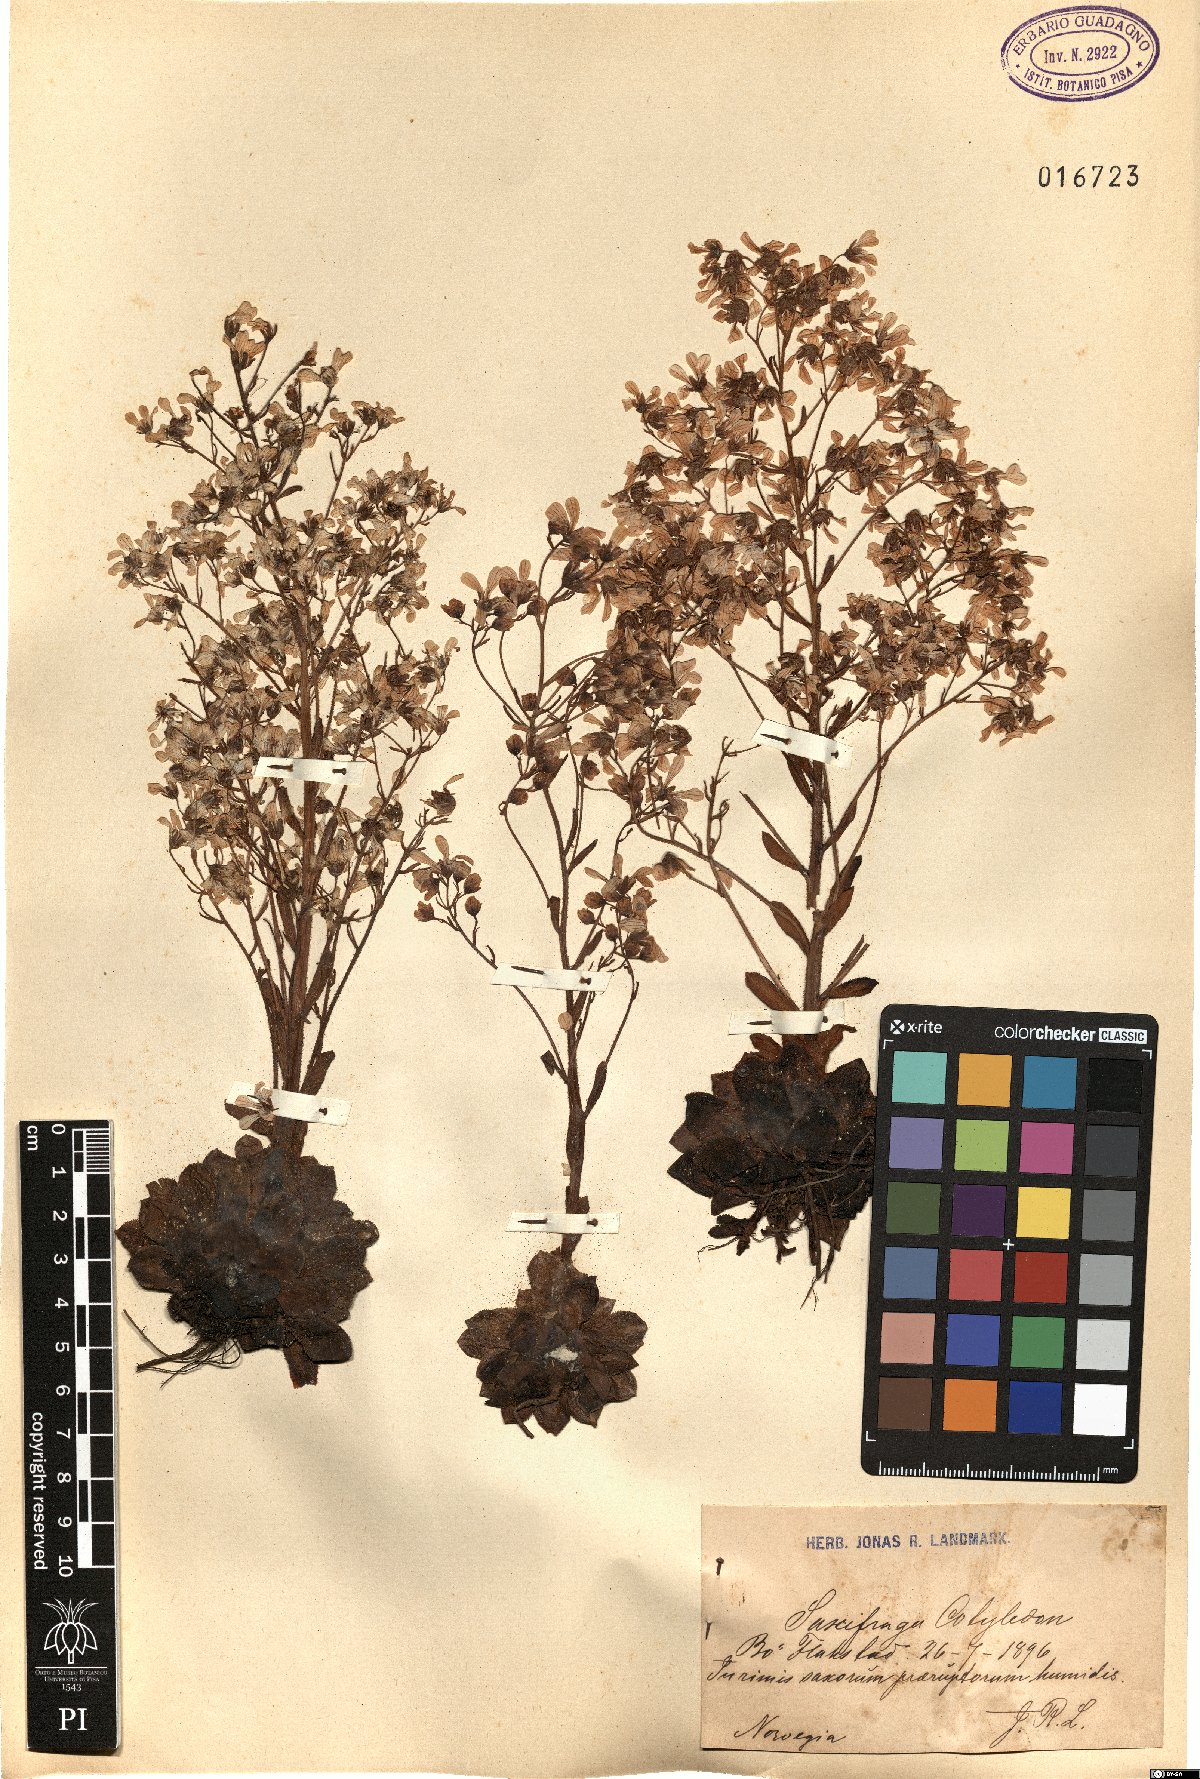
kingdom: Plantae
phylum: Tracheophyta
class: Magnoliopsida
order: Saxifragales
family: Saxifragaceae
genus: Saxifraga
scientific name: Saxifraga cotyledon
